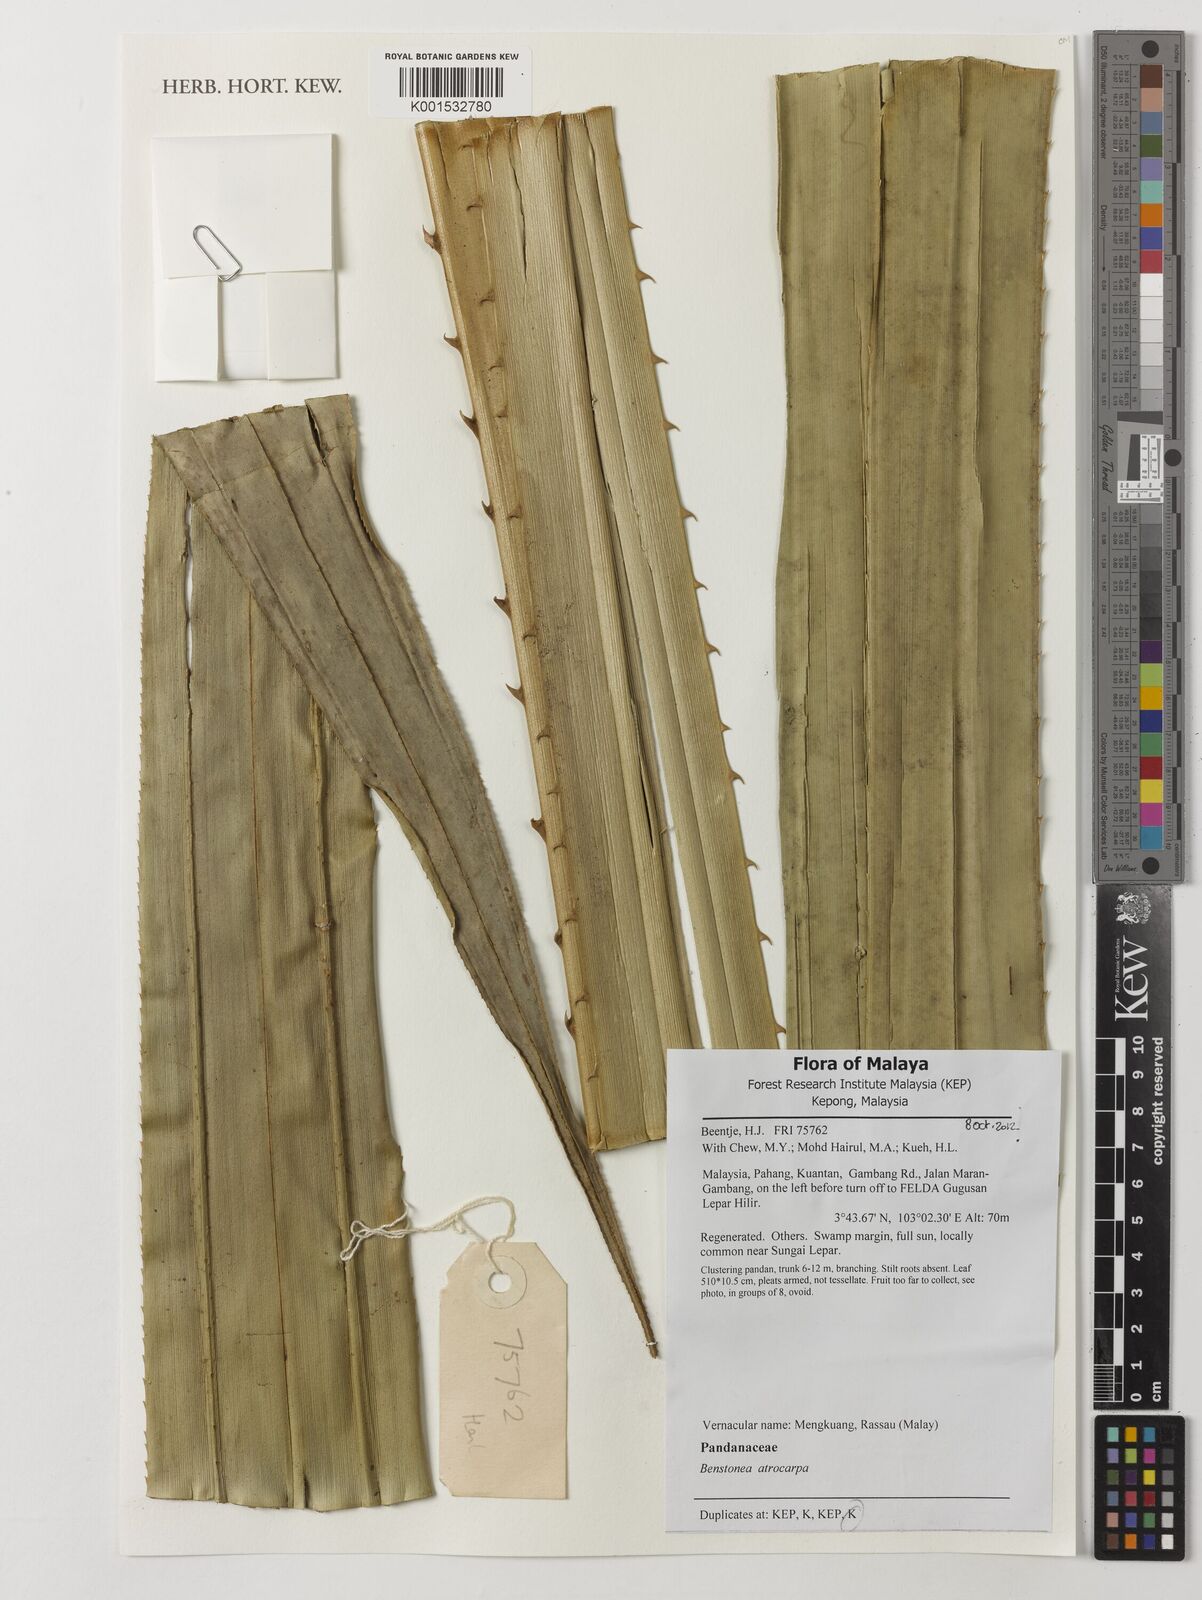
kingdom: Plantae
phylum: Tracheophyta
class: Liliopsida
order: Pandanales
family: Pandanaceae
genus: Benstonea
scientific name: Benstonea atrocarpa
